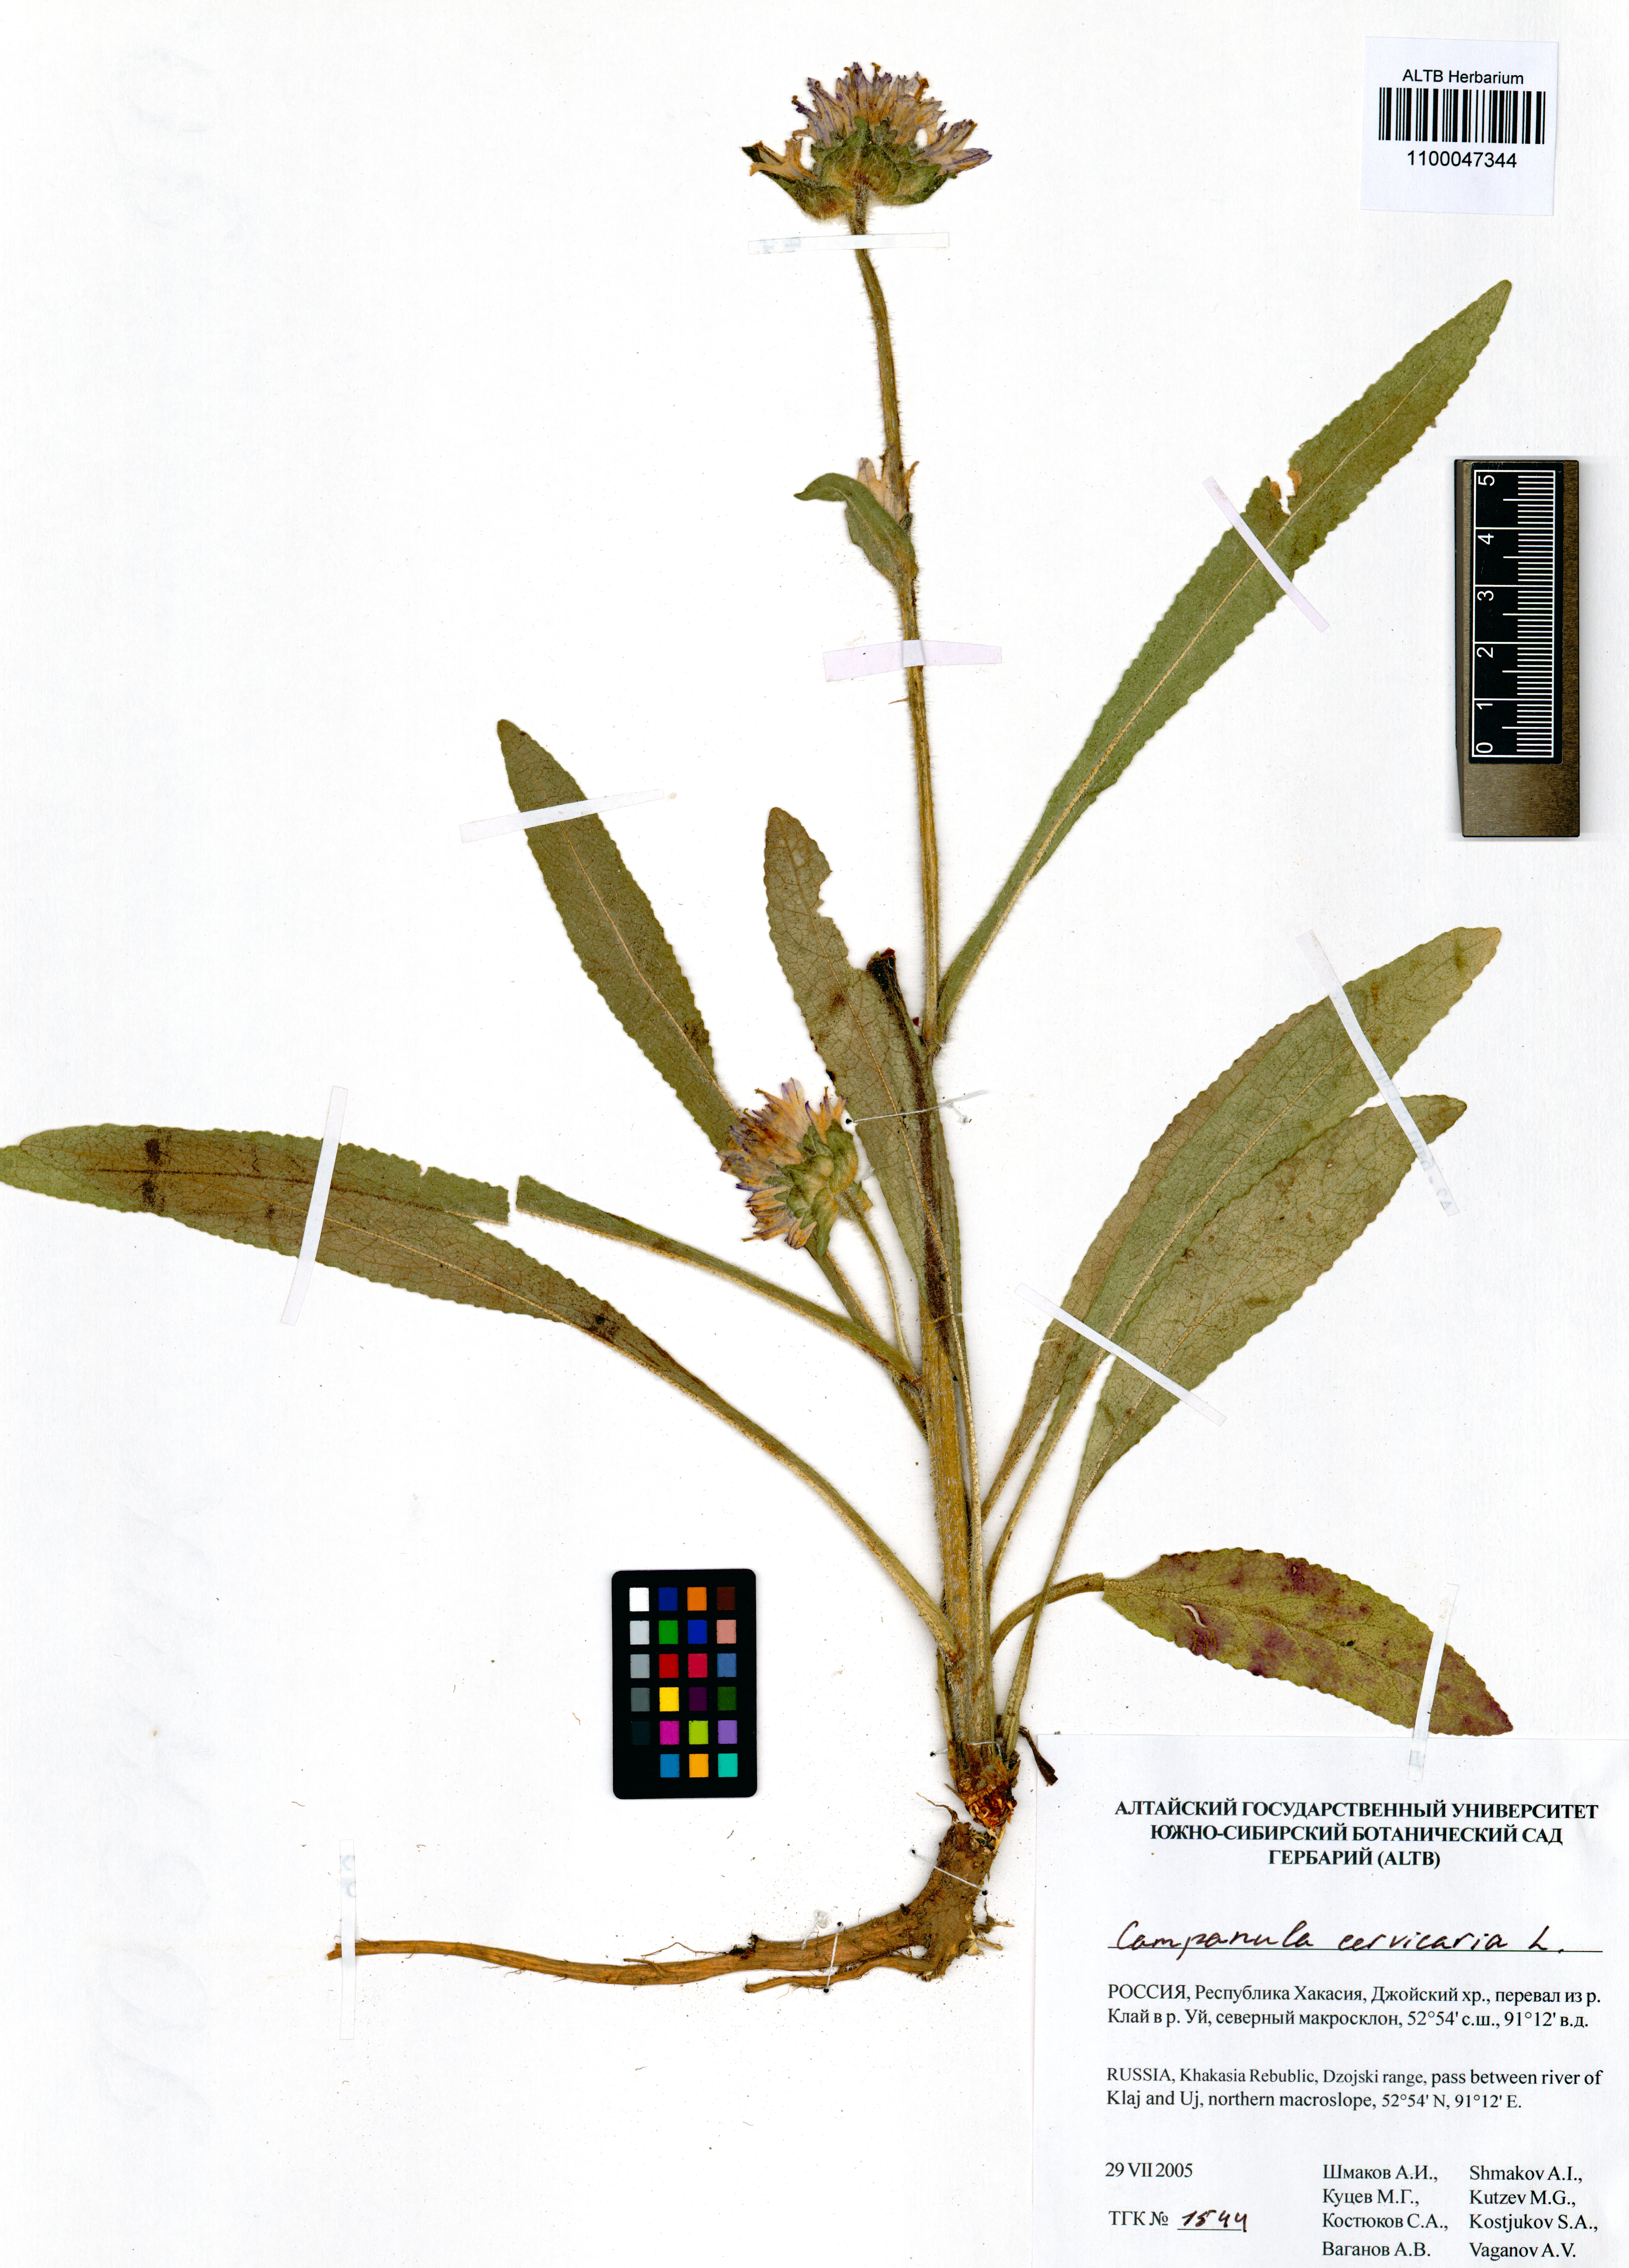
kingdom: Plantae
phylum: Tracheophyta
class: Magnoliopsida
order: Asterales
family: Campanulaceae
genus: Campanula
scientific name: Campanula cervicaria
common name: Bristly bellflower
